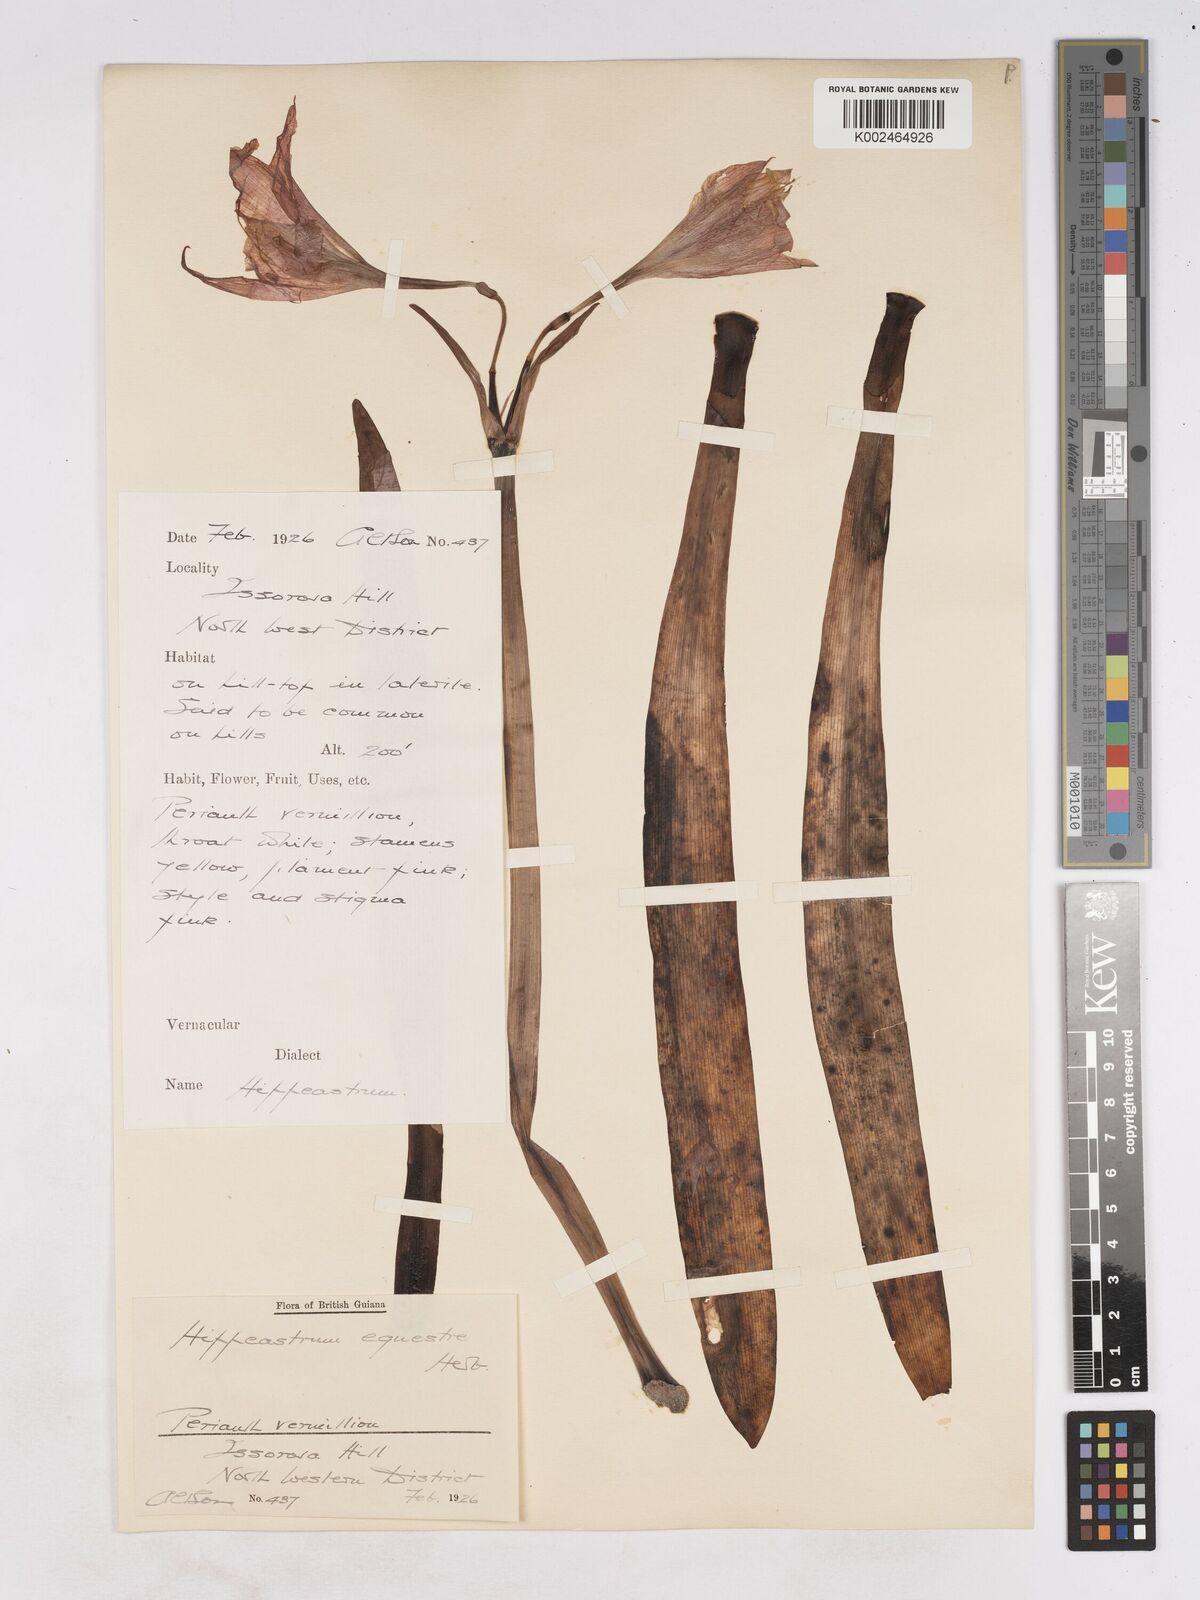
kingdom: Plantae
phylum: Tracheophyta
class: Liliopsida
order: Asparagales
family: Amaryllidaceae
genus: Hippeastrum
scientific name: Hippeastrum puniceum
